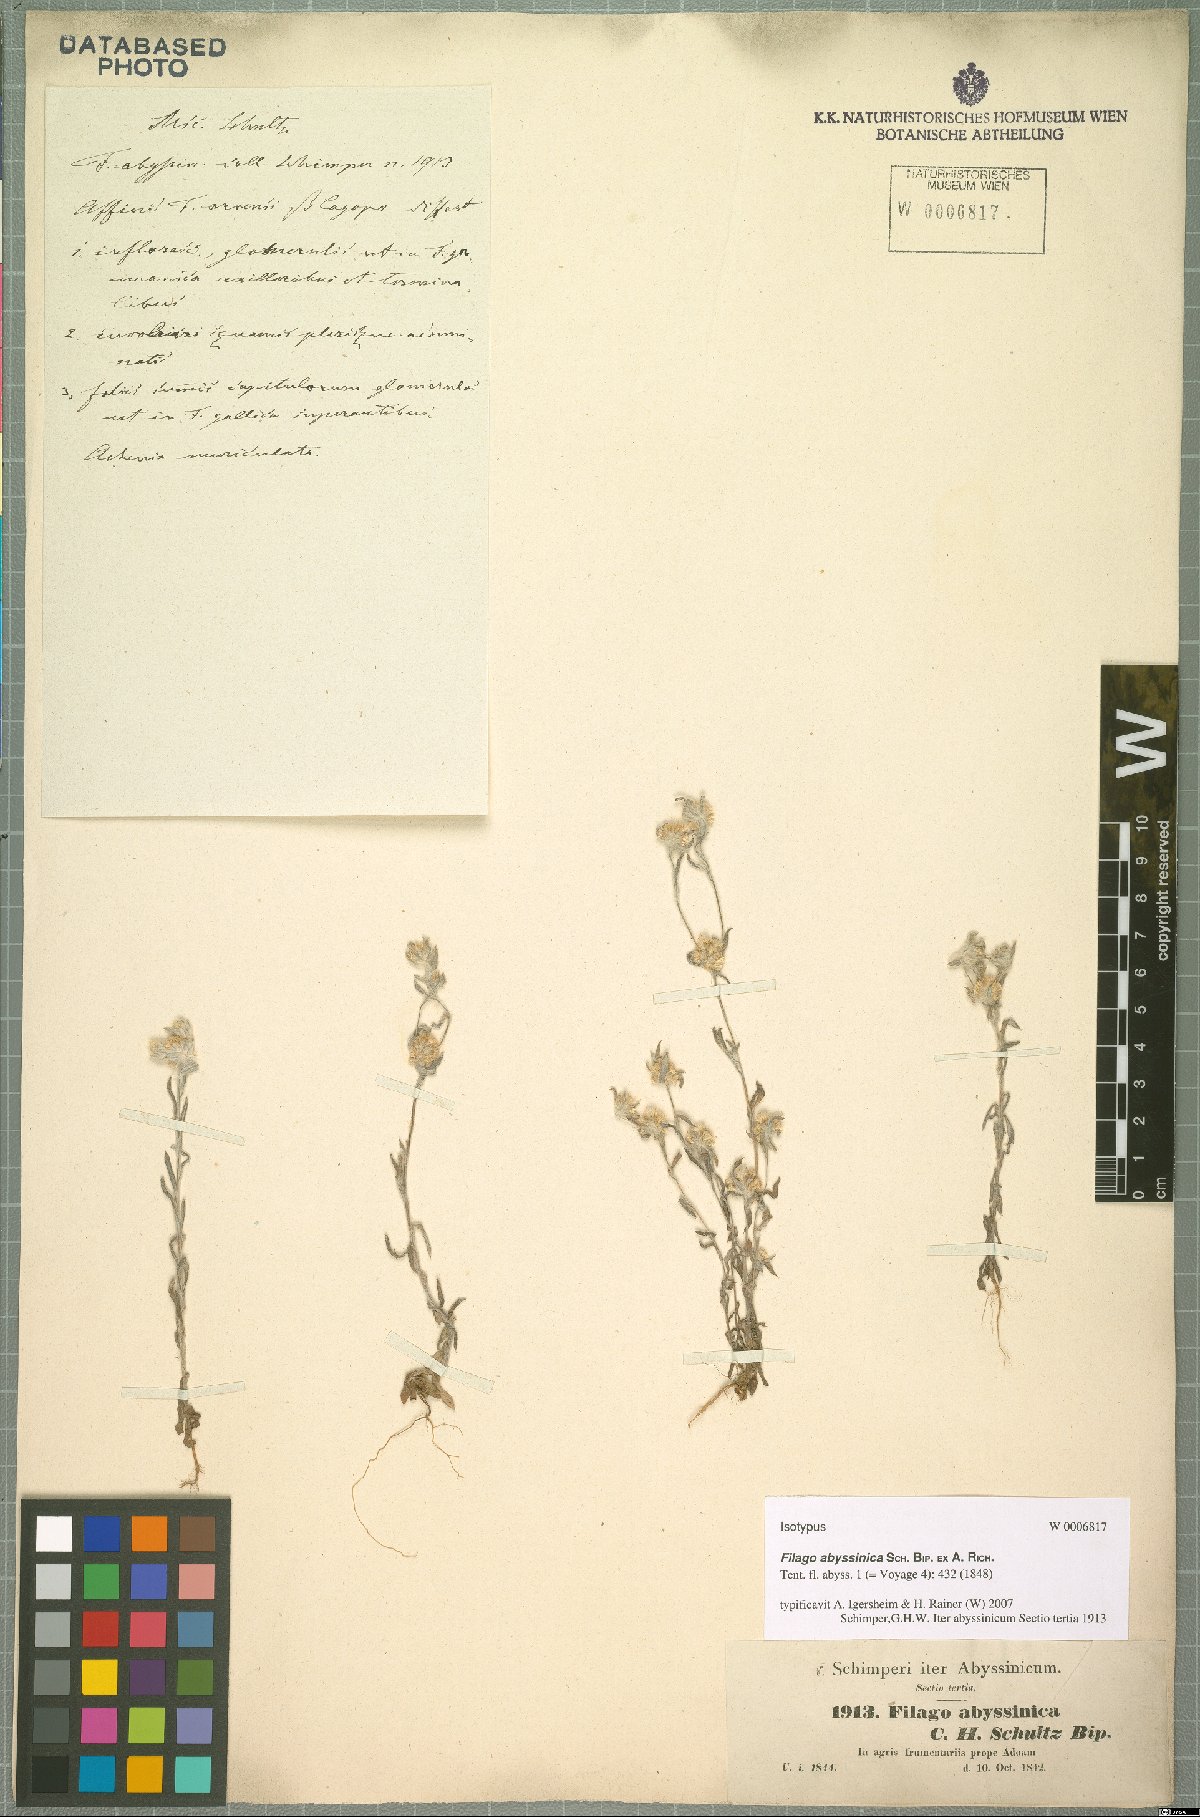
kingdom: Plantae
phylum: Tracheophyta
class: Magnoliopsida
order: Asterales
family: Asteraceae
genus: Filago
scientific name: Filago abyssinica
